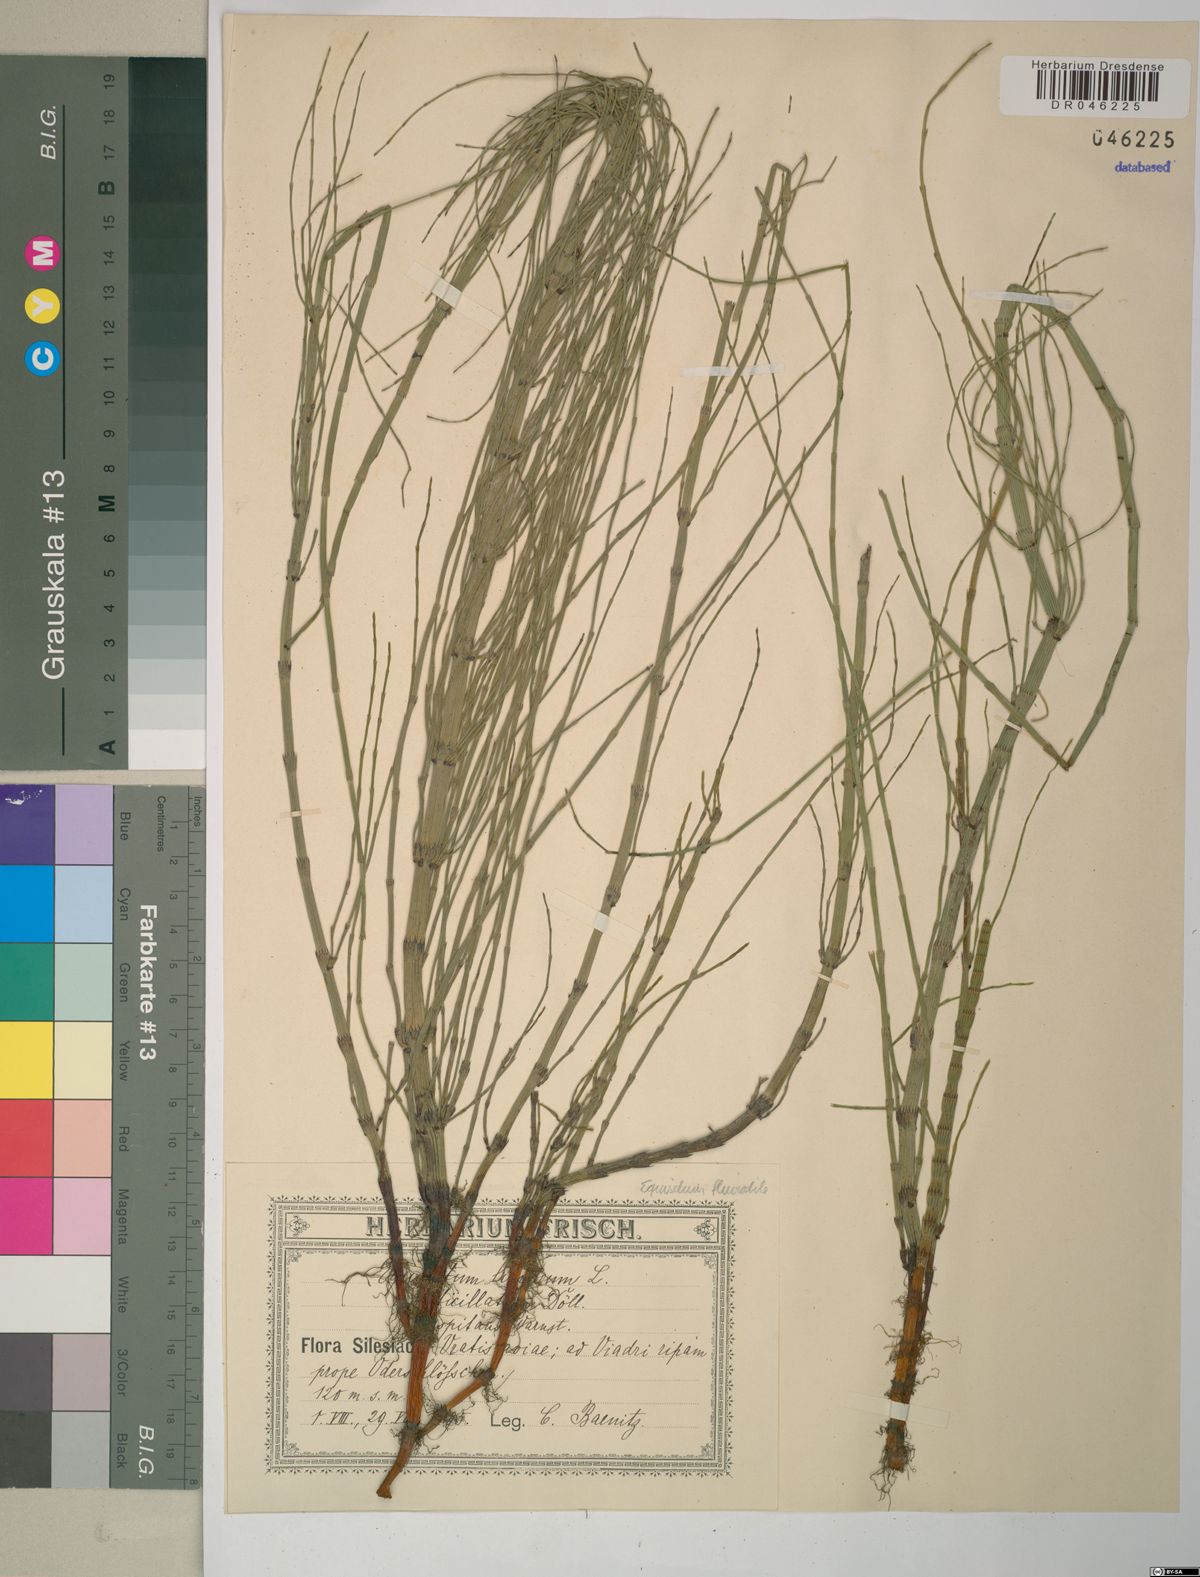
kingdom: Plantae
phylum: Tracheophyta
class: Polypodiopsida
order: Equisetales
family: Equisetaceae
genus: Equisetum
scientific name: Equisetum fluviatile
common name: Water horsetail
